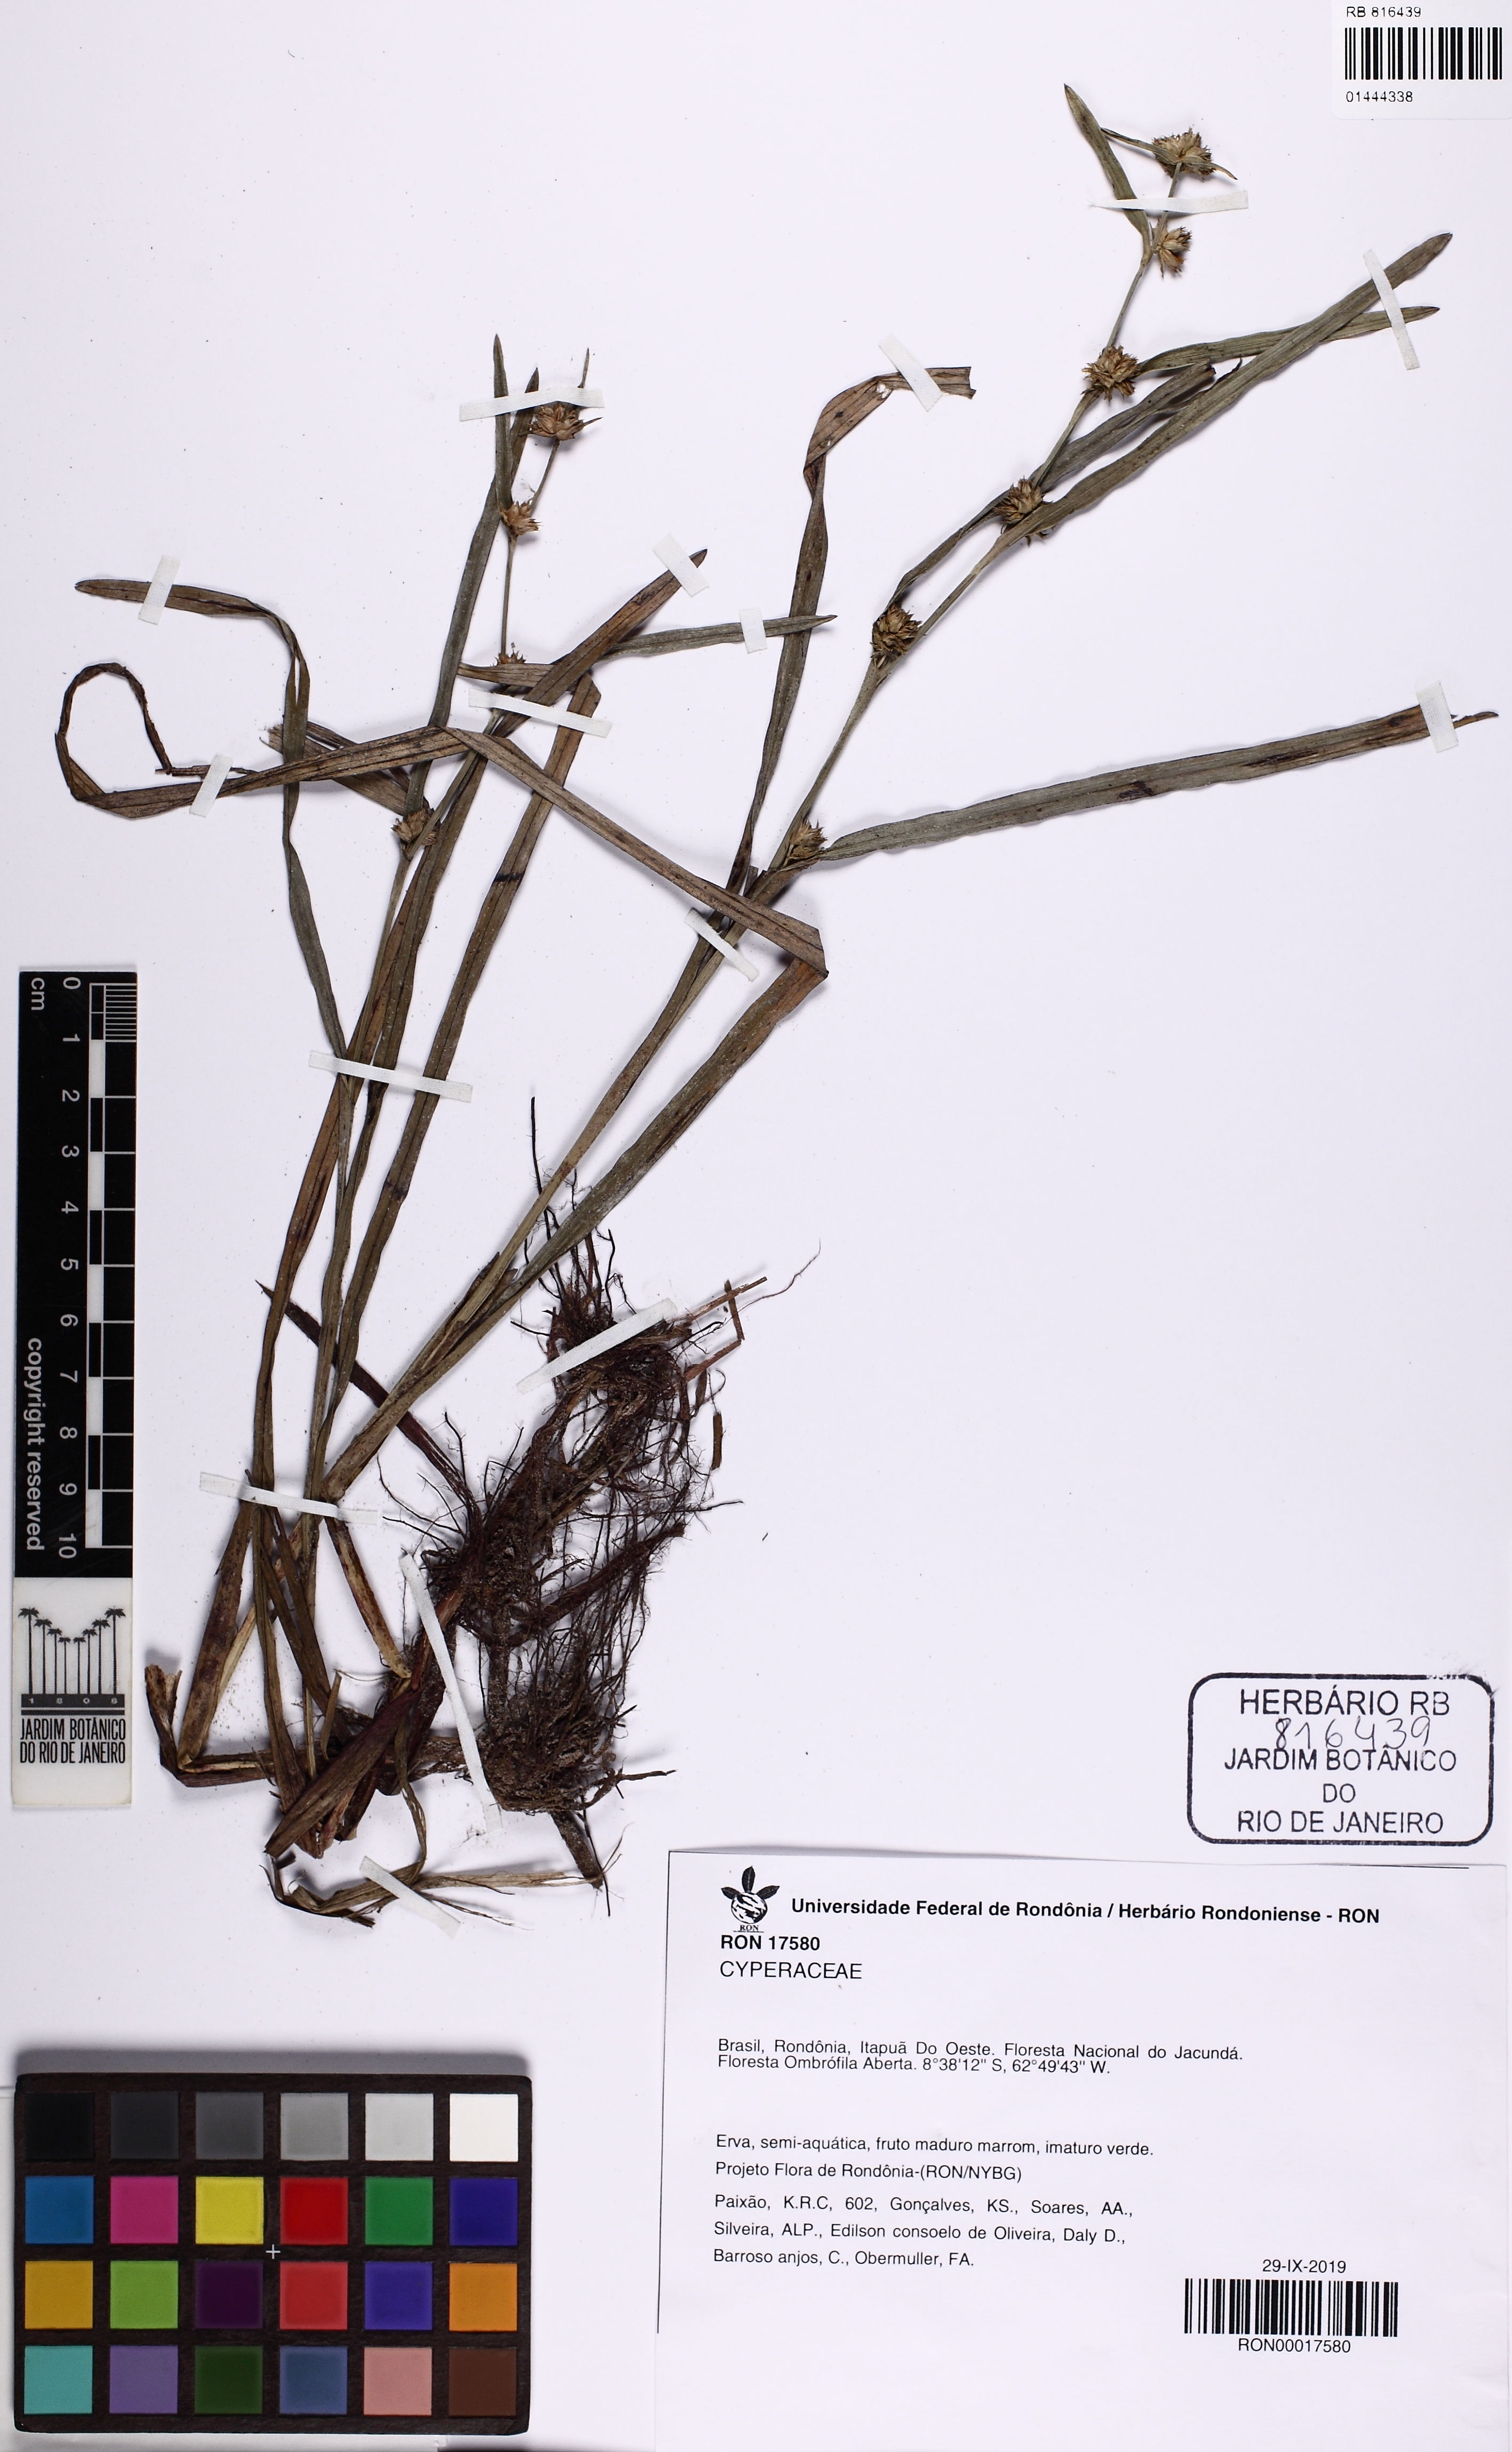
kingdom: Plantae
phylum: Tracheophyta
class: Liliopsida
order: Poales
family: Cyperaceae
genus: Diplacrum
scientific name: Diplacrum guianense
